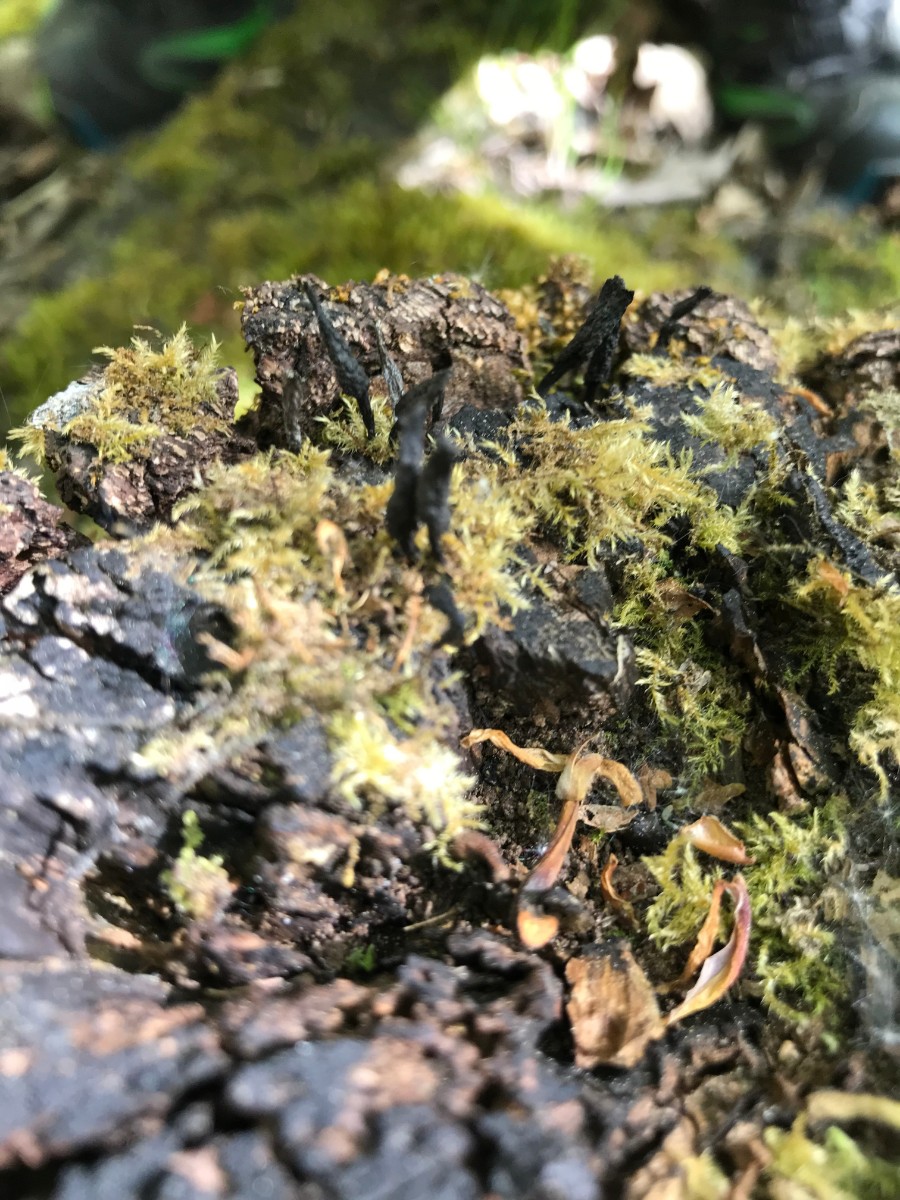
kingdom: Fungi
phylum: Ascomycota
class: Sordariomycetes
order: Xylariales
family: Xylariaceae
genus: Xylaria
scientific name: Xylaria hypoxylon
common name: grenet stødsvamp
